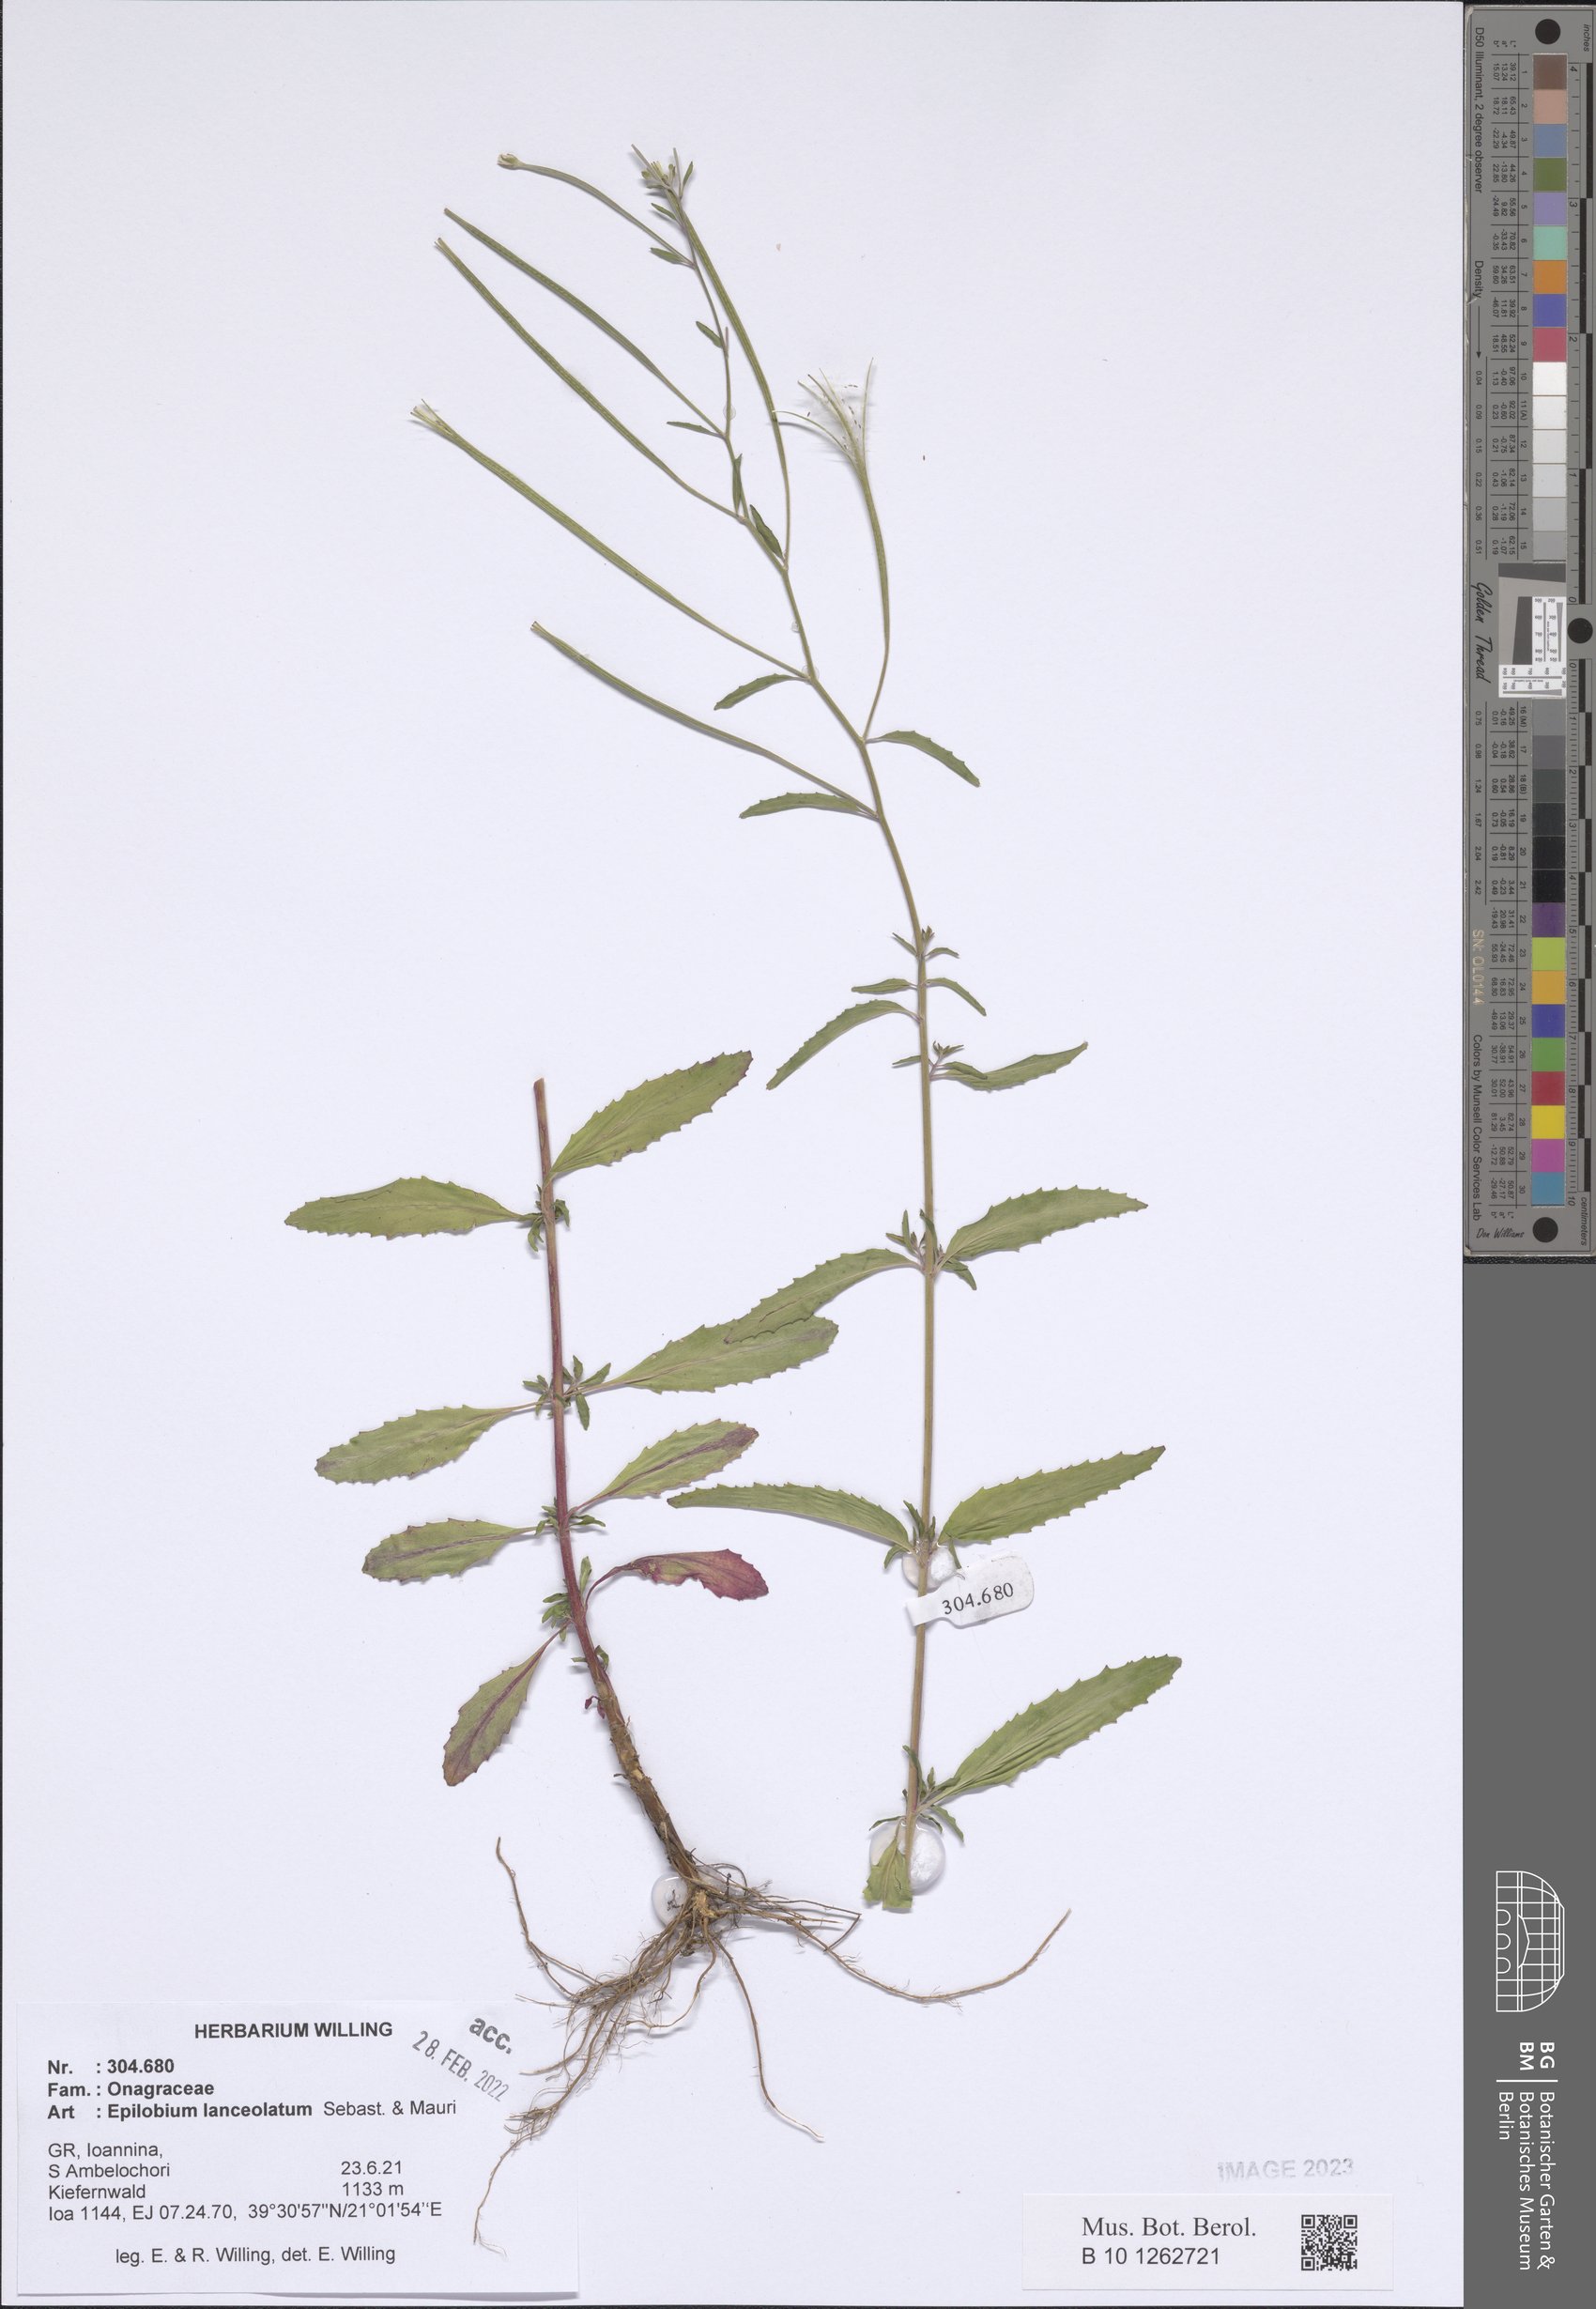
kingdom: Plantae
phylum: Tracheophyta
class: Magnoliopsida
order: Myrtales
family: Onagraceae
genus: Epilobium
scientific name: Epilobium lanceolatum
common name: Spear-leaved willowherb
